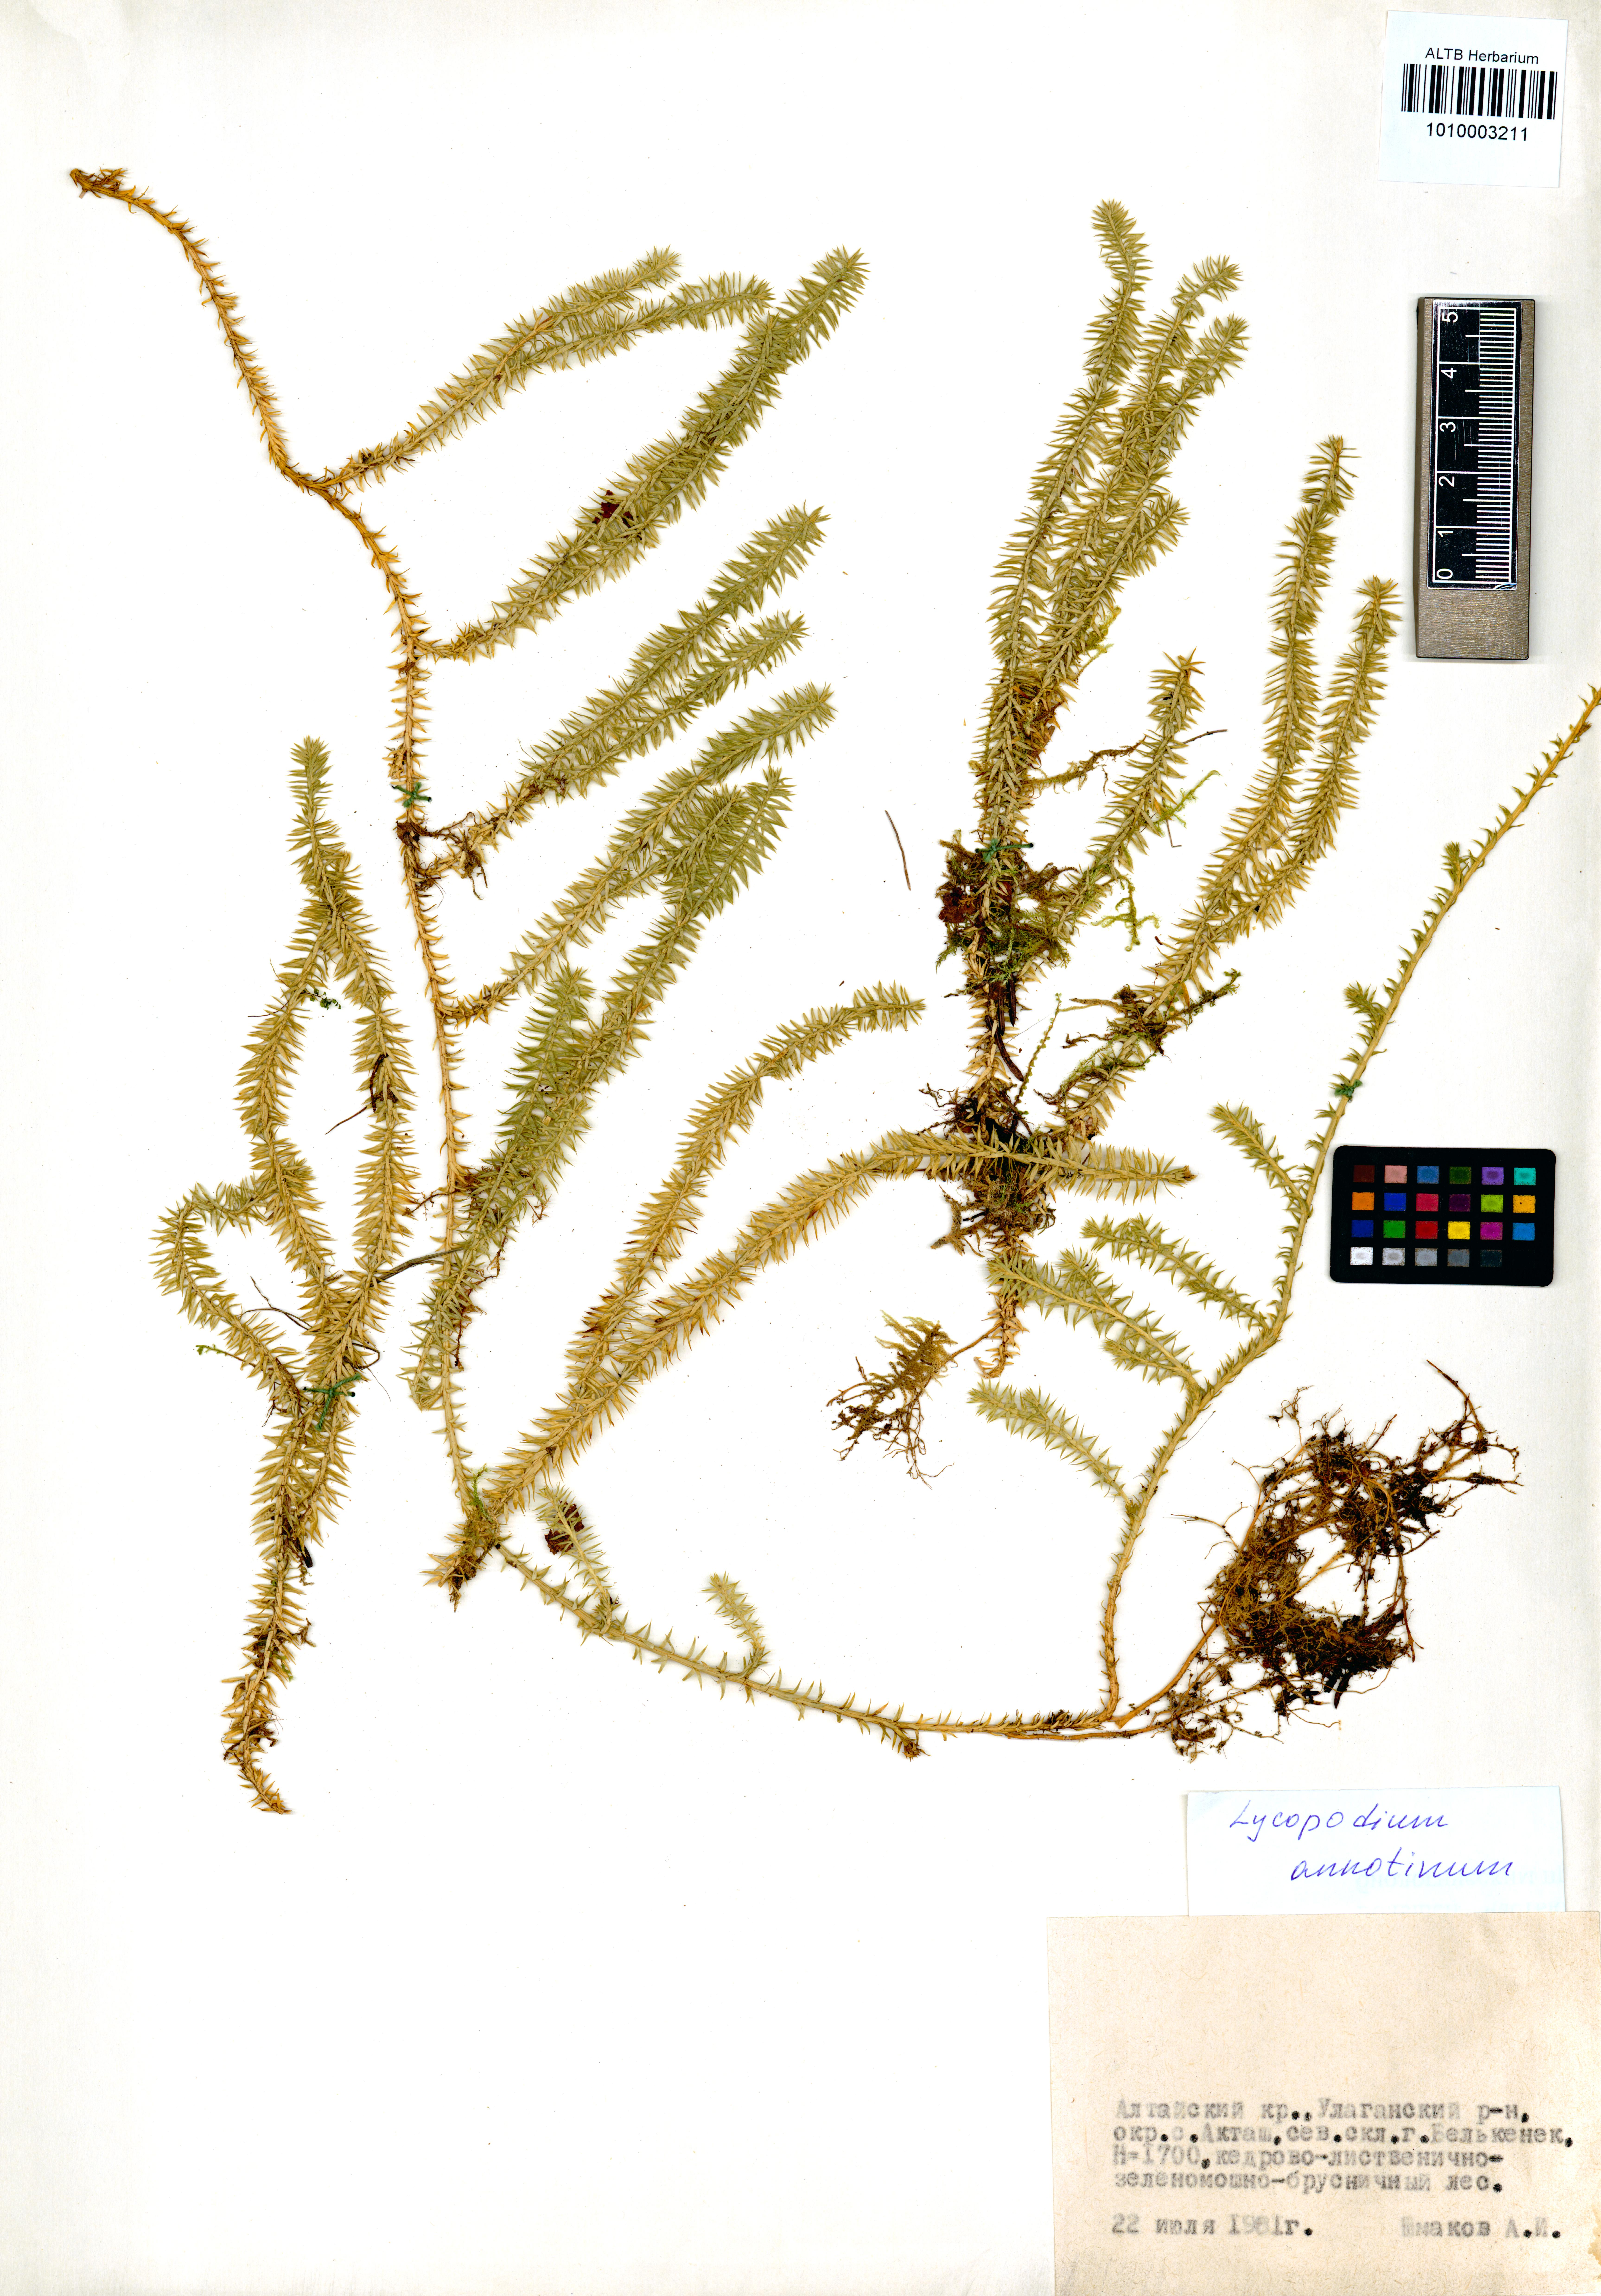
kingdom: Plantae
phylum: Tracheophyta
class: Lycopodiopsida
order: Lycopodiales
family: Lycopodiaceae
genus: Spinulum
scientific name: Spinulum annotinum
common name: Interrupted club-moss
